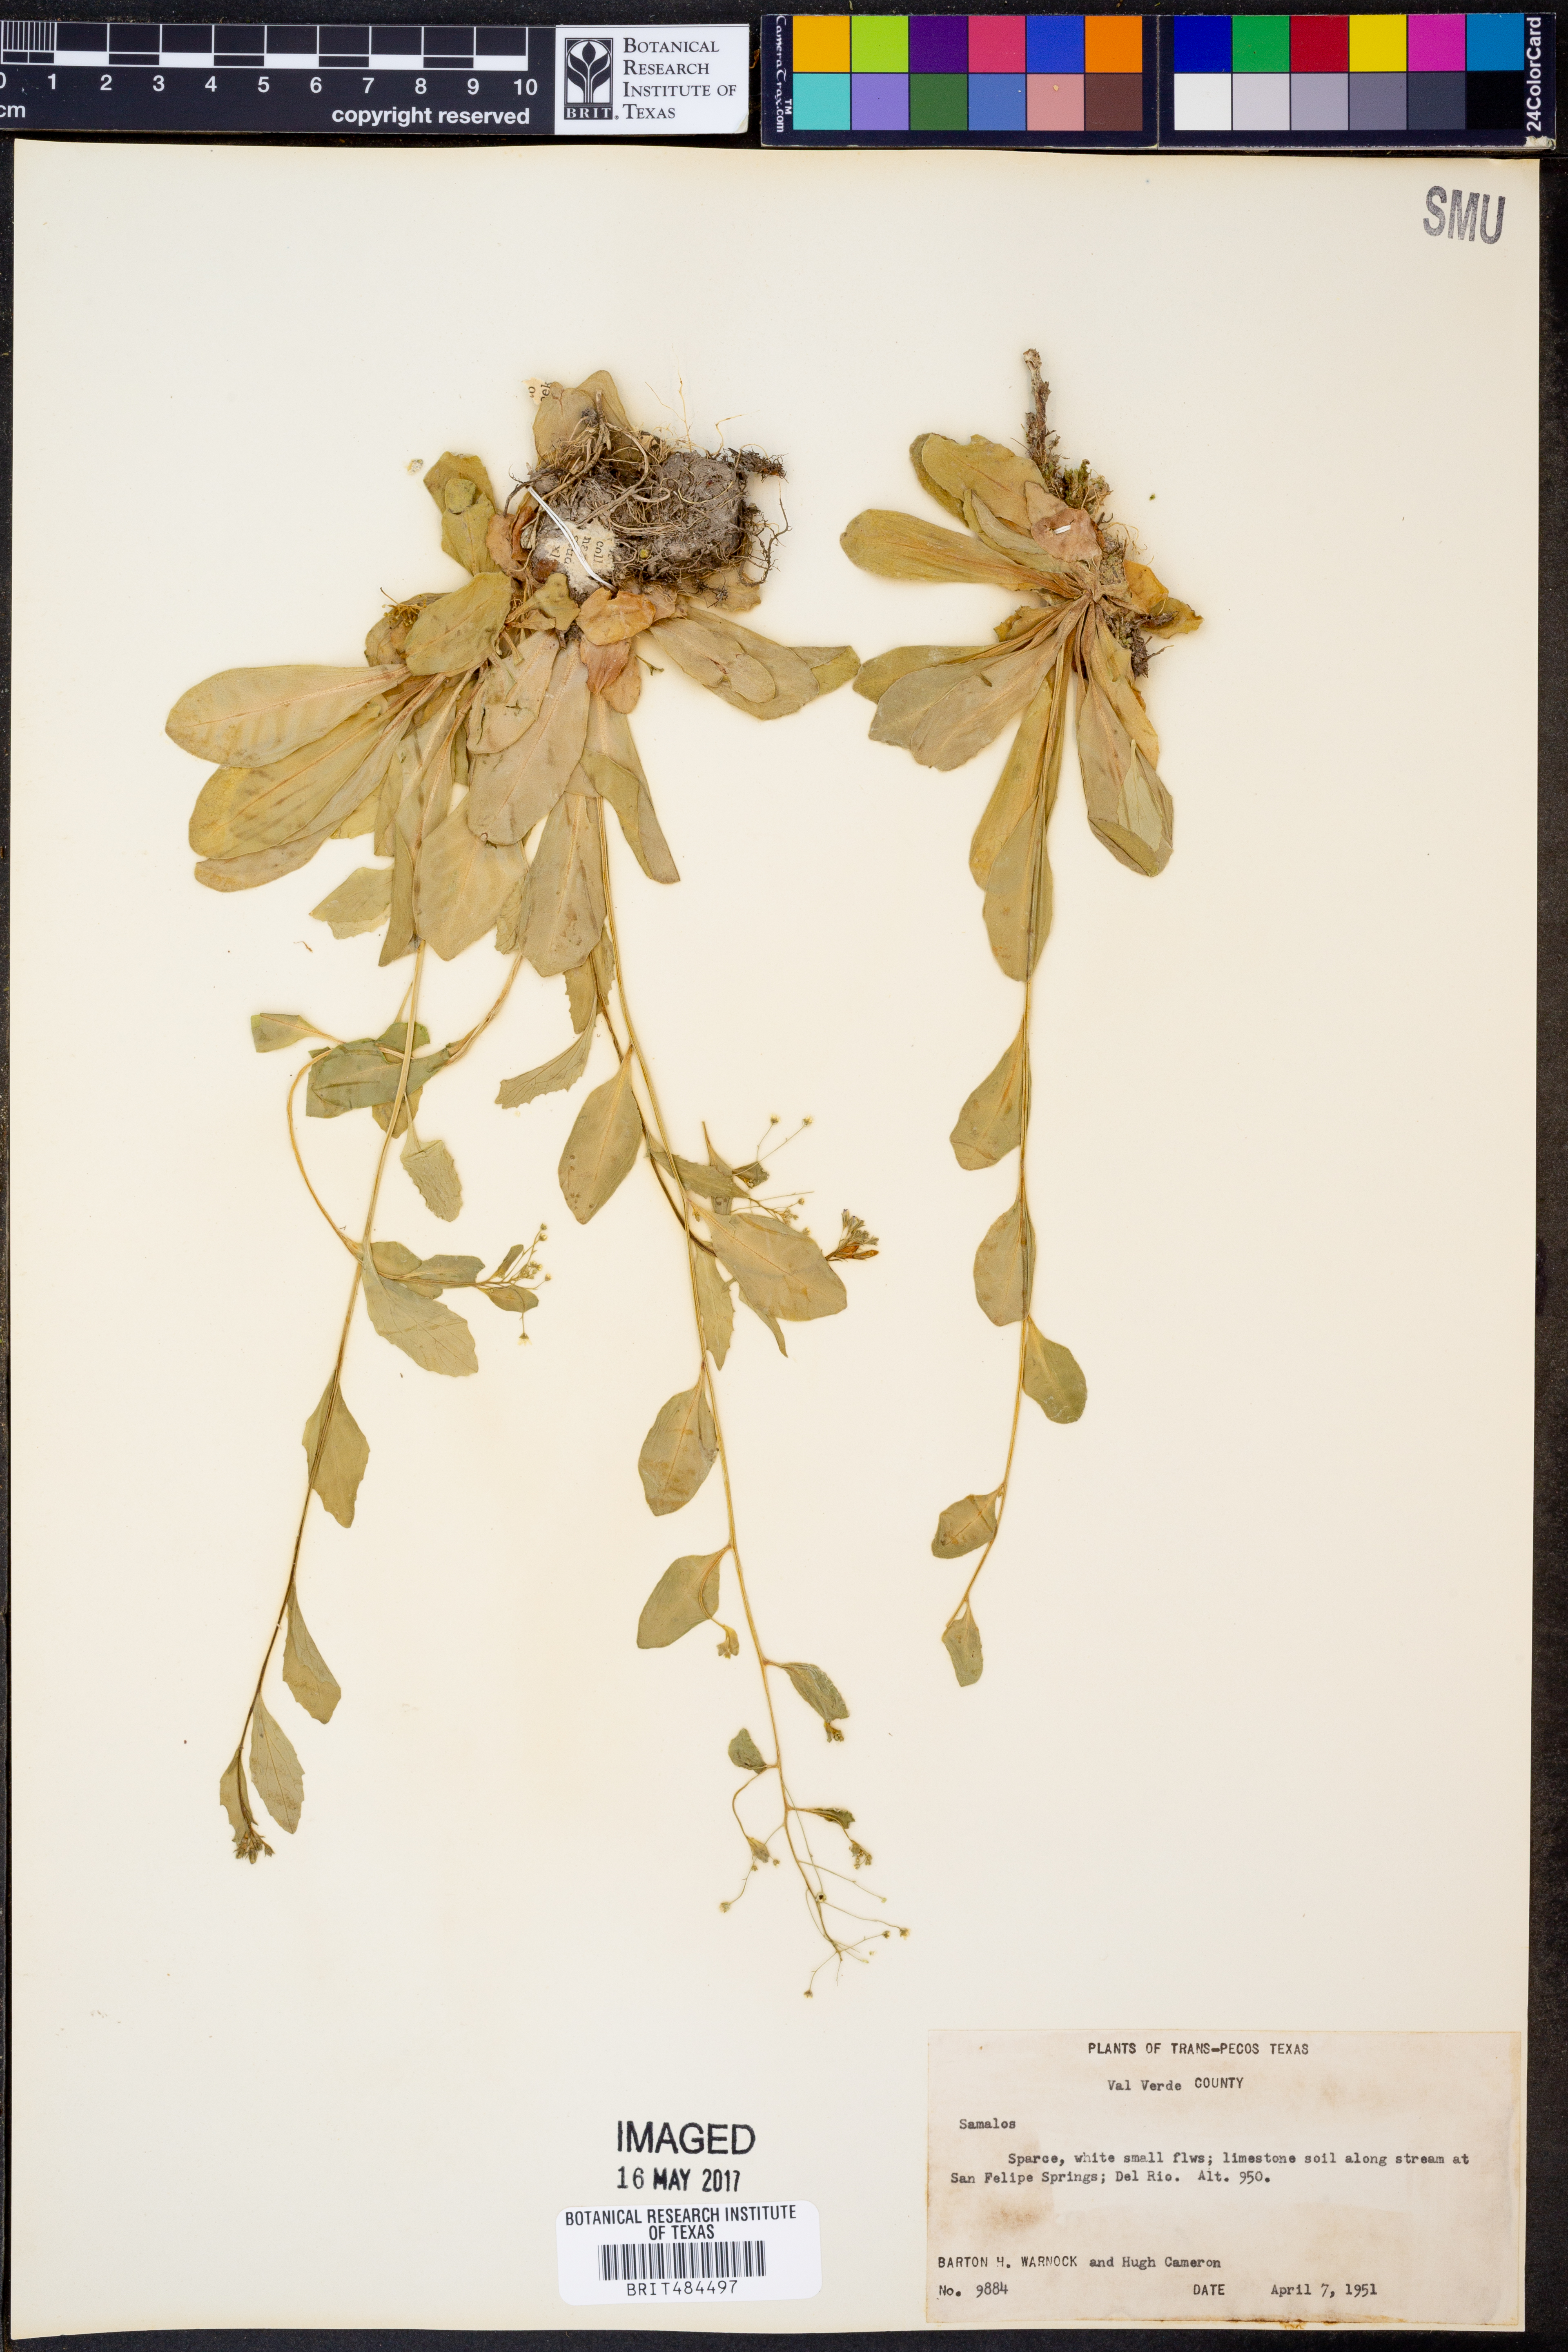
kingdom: Plantae
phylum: Tracheophyta
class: Magnoliopsida
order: Ericales
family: Primulaceae
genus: Samolus
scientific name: Samolus
